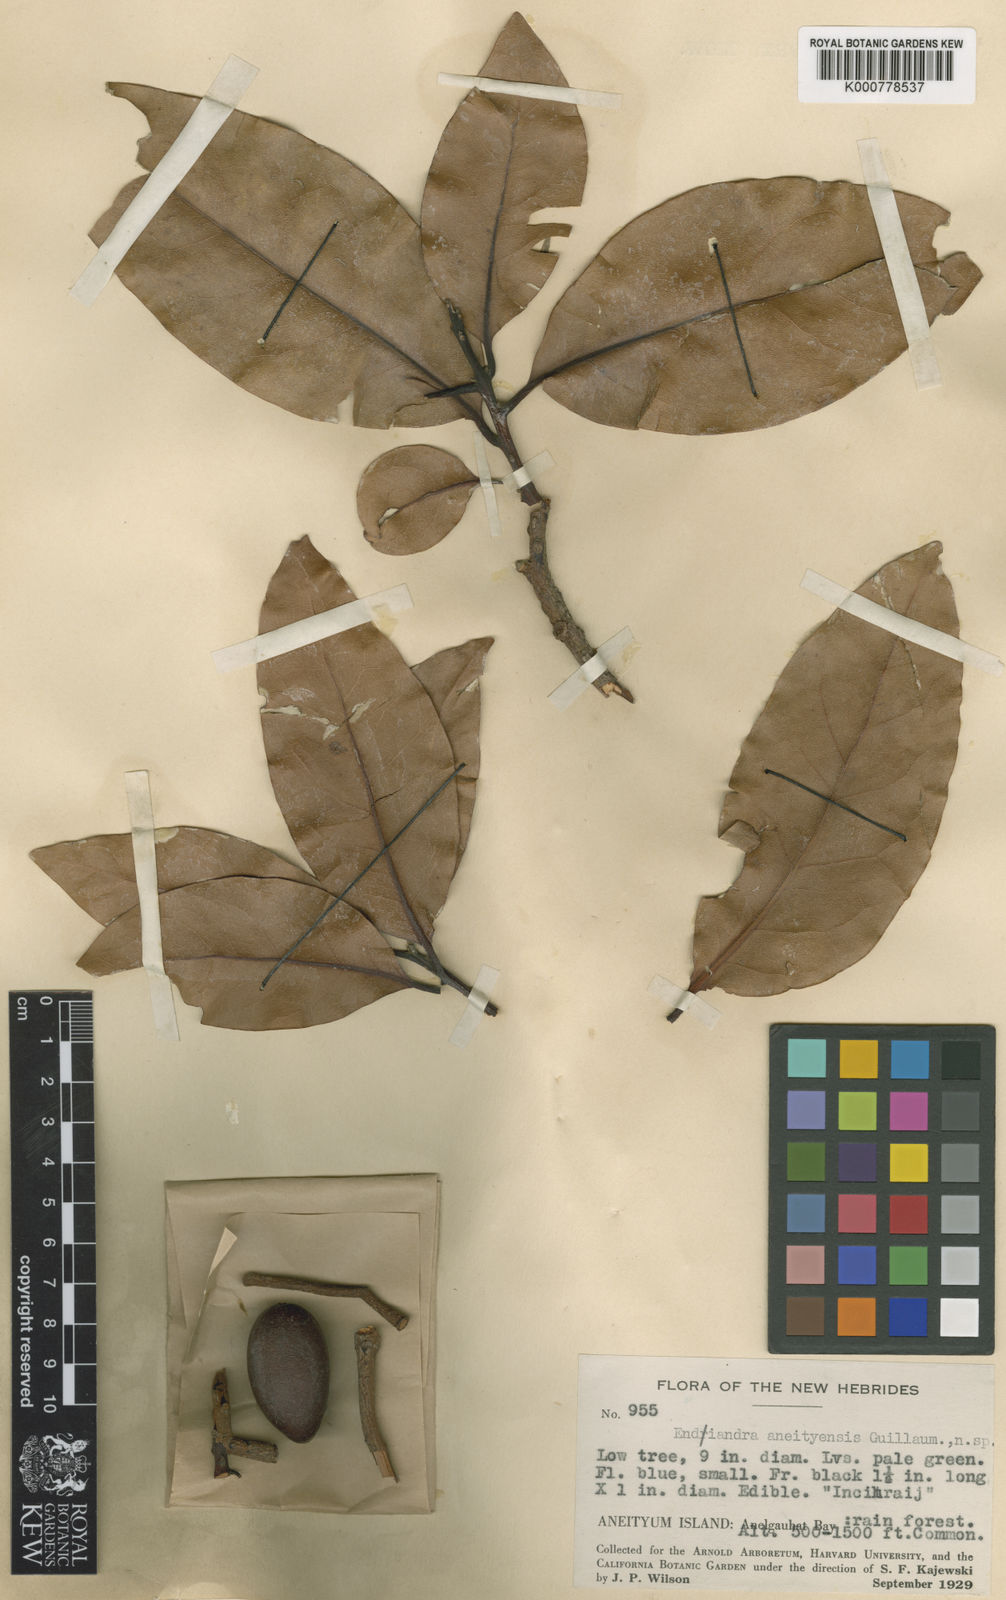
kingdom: Plantae
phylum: Tracheophyta
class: Magnoliopsida
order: Laurales
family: Lauraceae
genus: Endiandra
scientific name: Endiandra aneityensis
